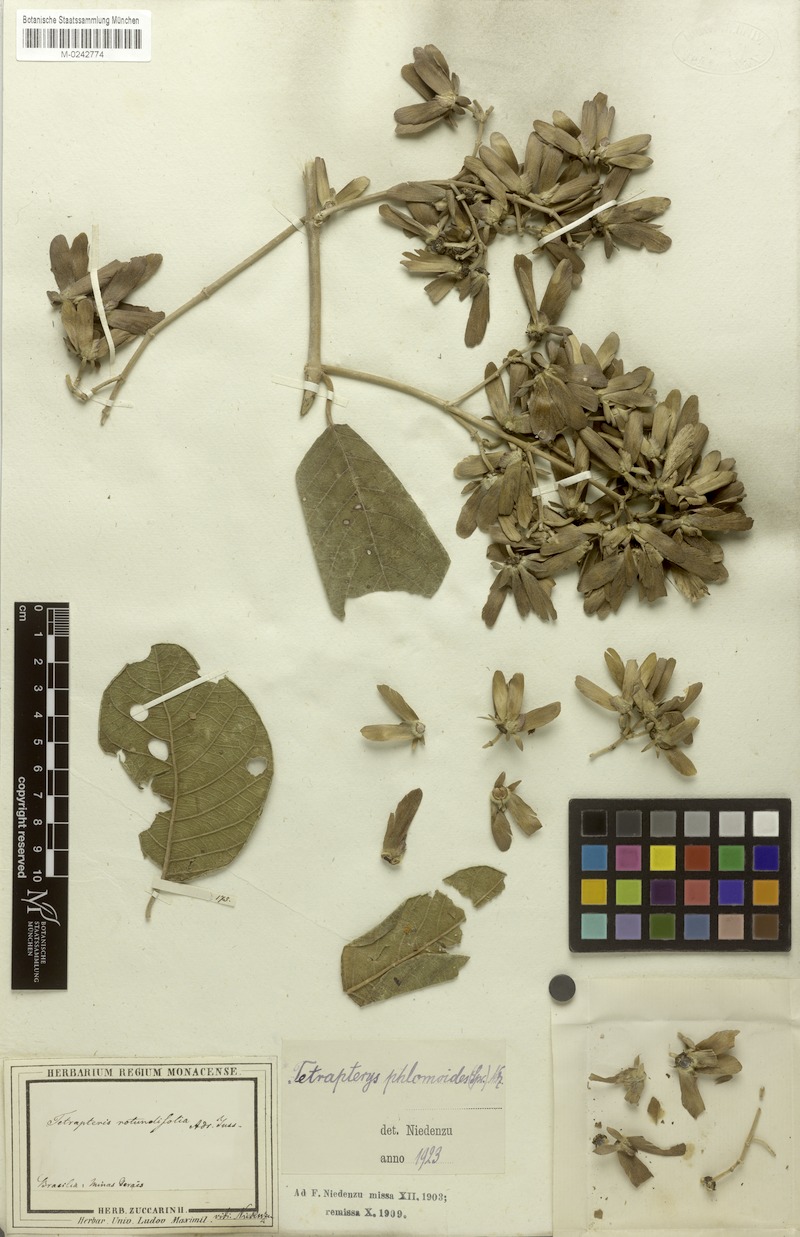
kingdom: Plantae
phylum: Tracheophyta
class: Magnoliopsida
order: Malpighiales
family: Malpighiaceae
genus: Tetrapterys
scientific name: Tetrapterys phlomoides
